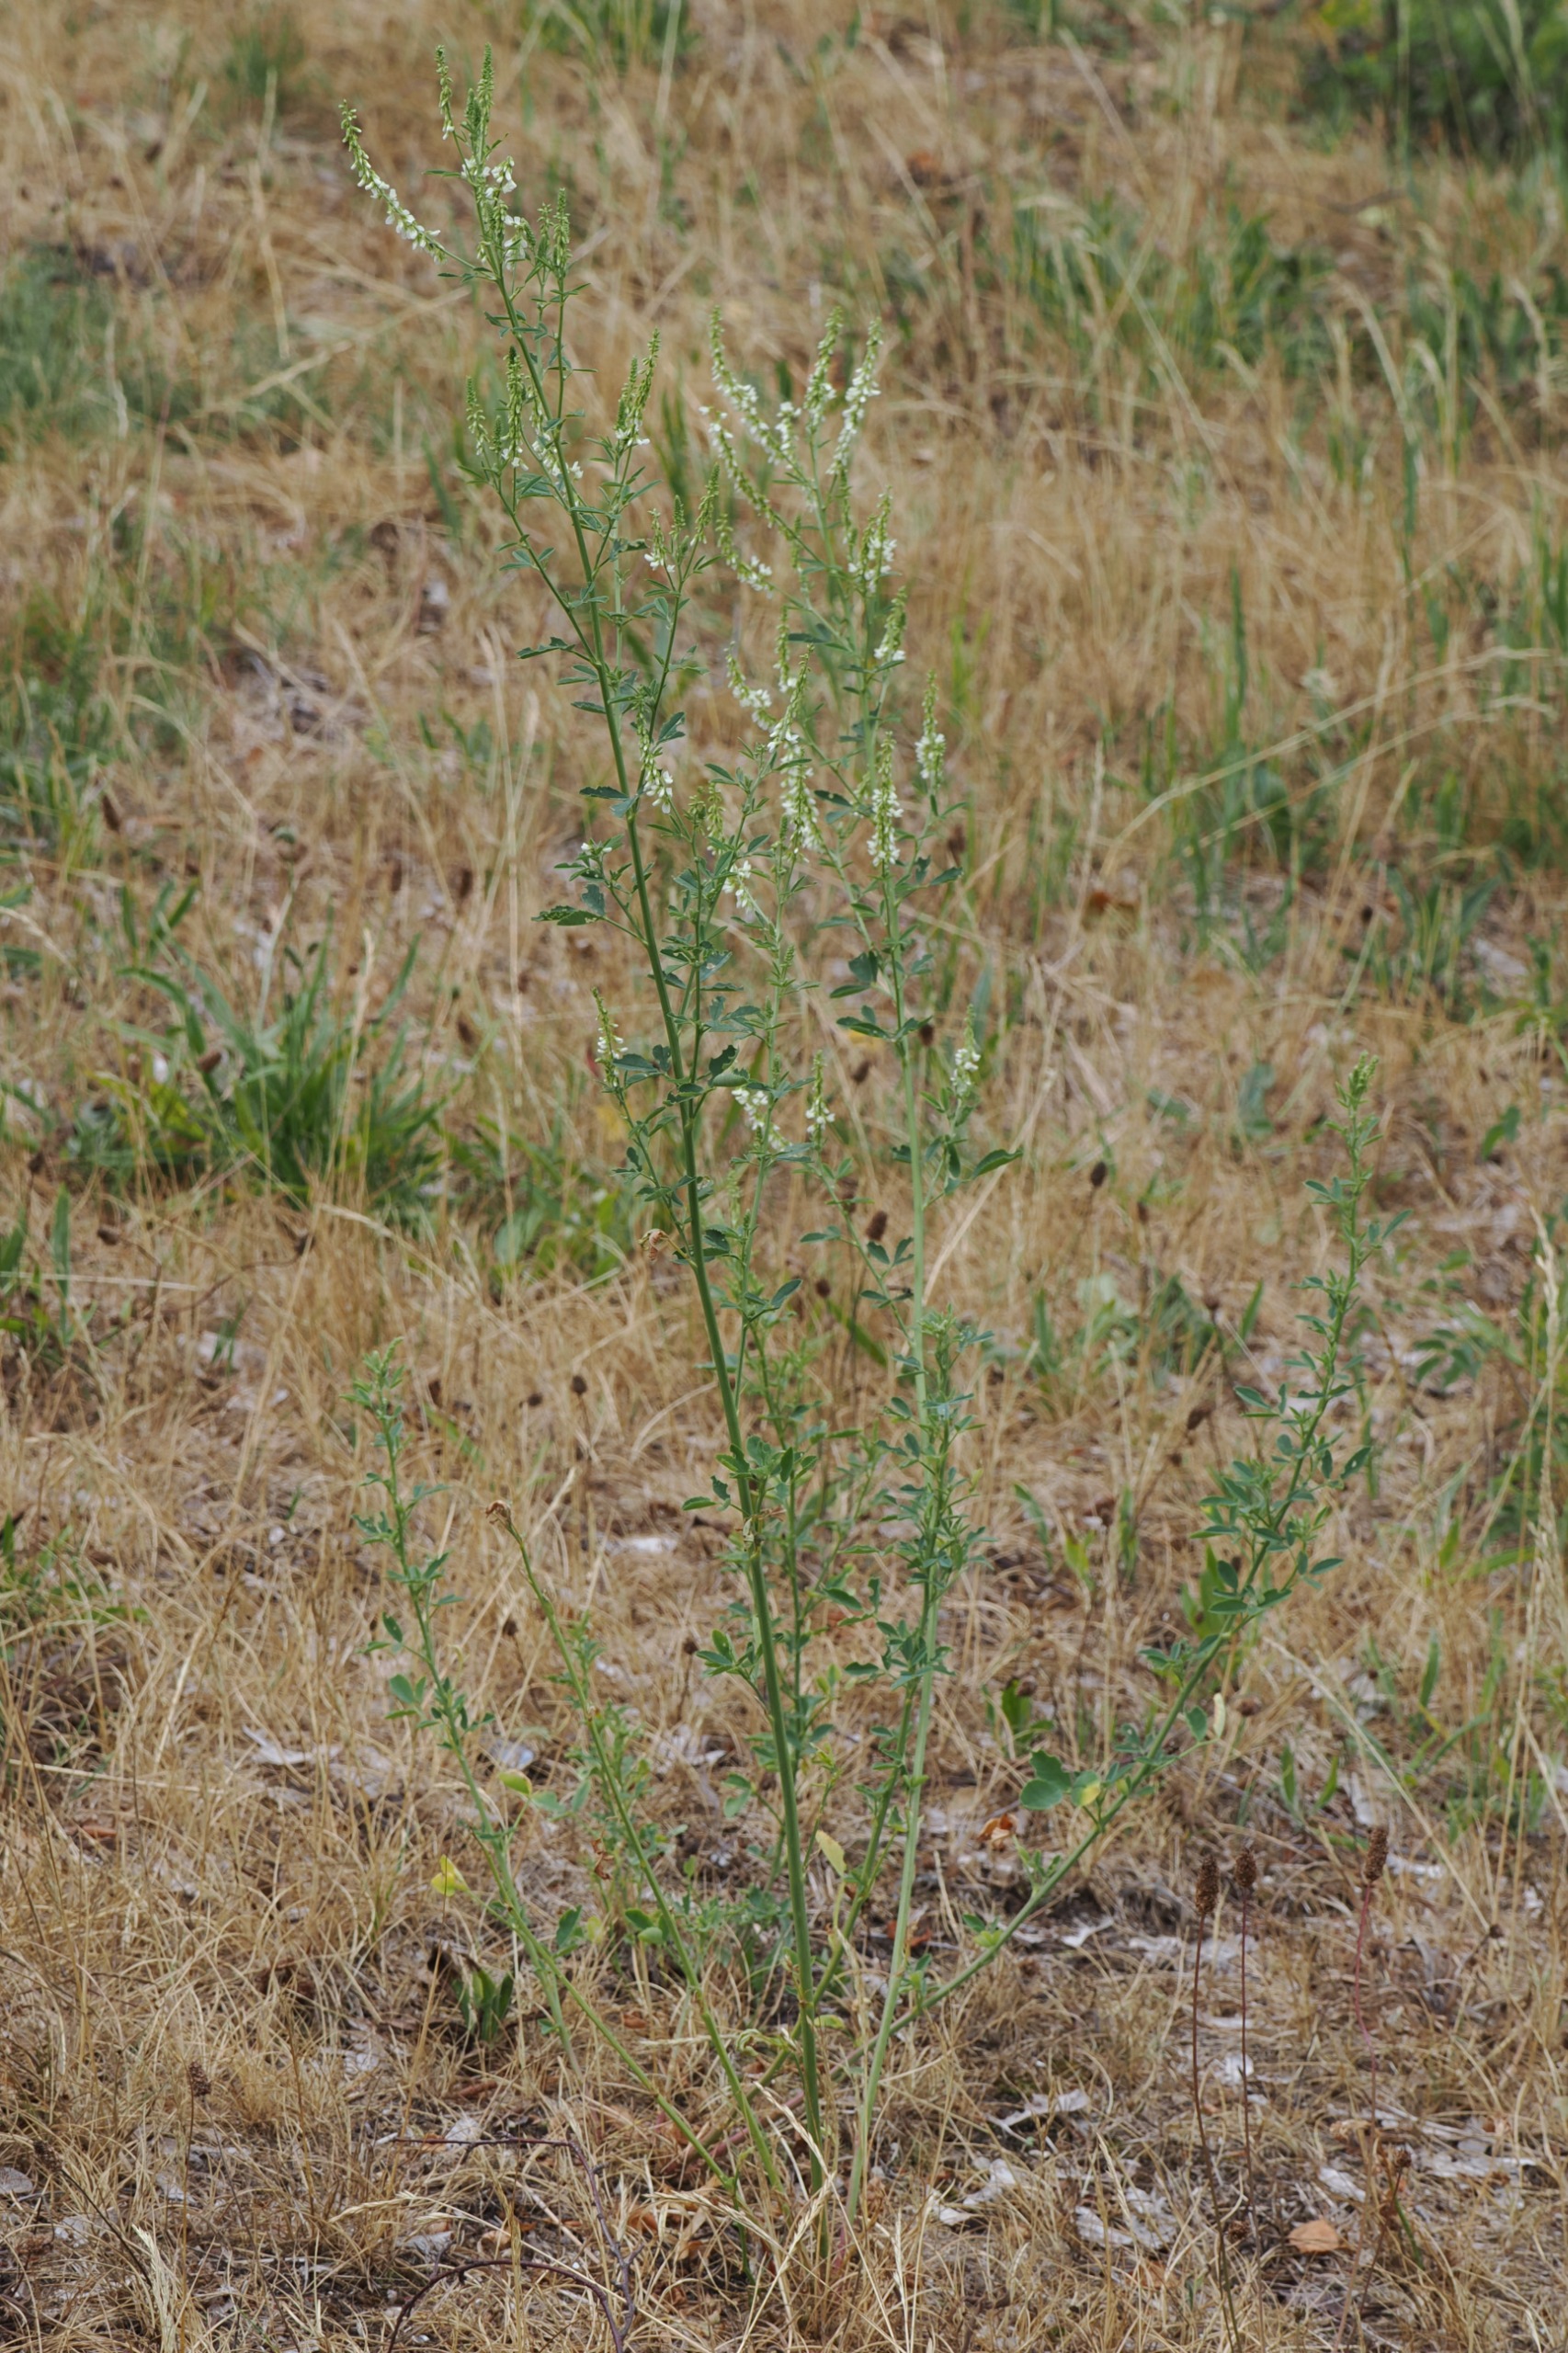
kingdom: Plantae
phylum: Tracheophyta
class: Magnoliopsida
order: Fabales
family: Fabaceae
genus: Melilotus
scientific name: Melilotus albus
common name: Hvid stenkløver
